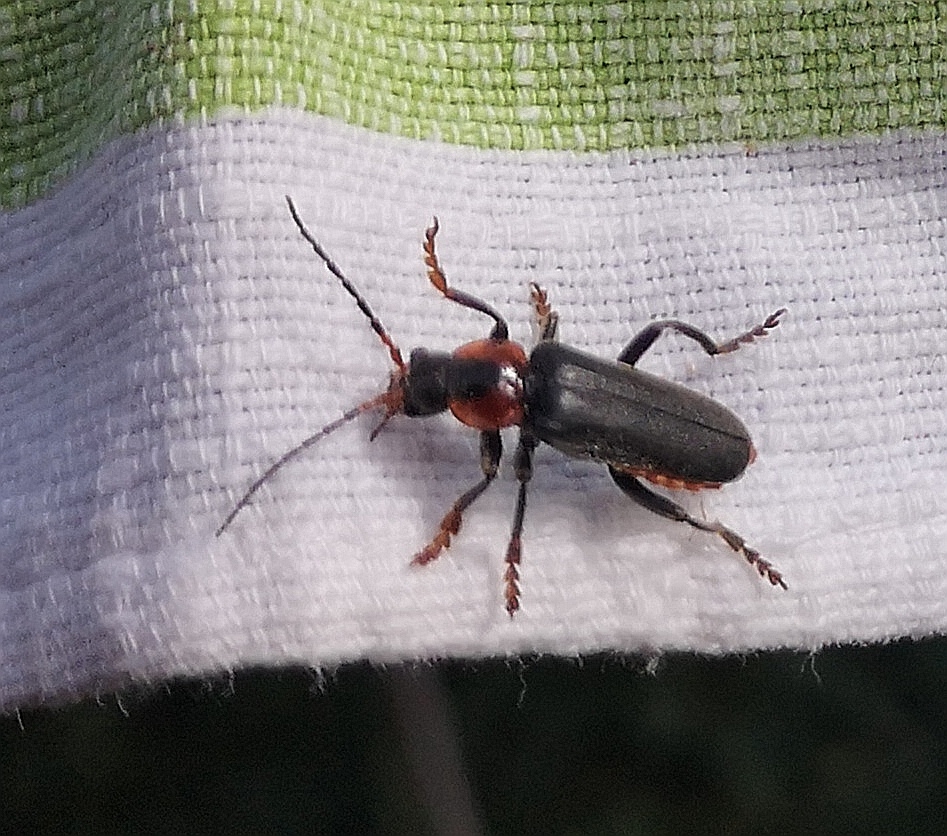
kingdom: Animalia
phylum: Arthropoda
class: Insecta
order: Coleoptera
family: Cantharidae
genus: Cantharis
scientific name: Cantharis fusca
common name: Stor blødvinge
